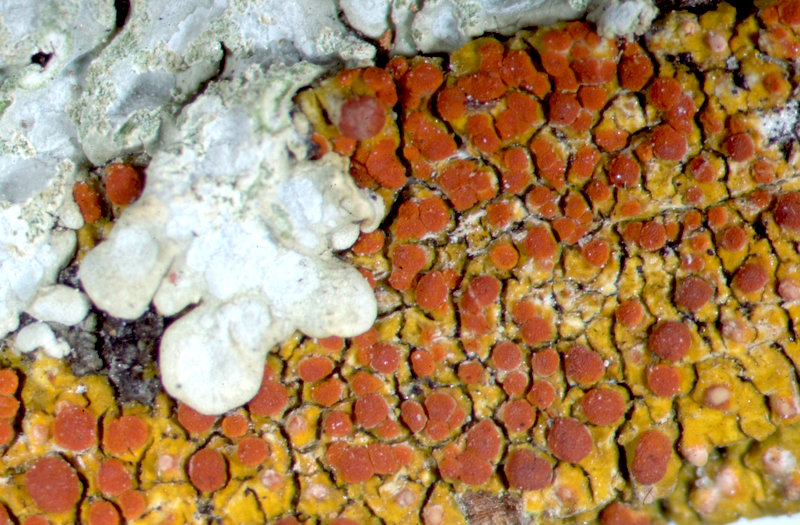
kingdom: Fungi
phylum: Ascomycota
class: Lecanoromycetes
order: Caliciales
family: Physciaceae
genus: Hyperphyscia
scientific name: Hyperphyscia adglutinata
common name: Grainy shadow-crust lichen
